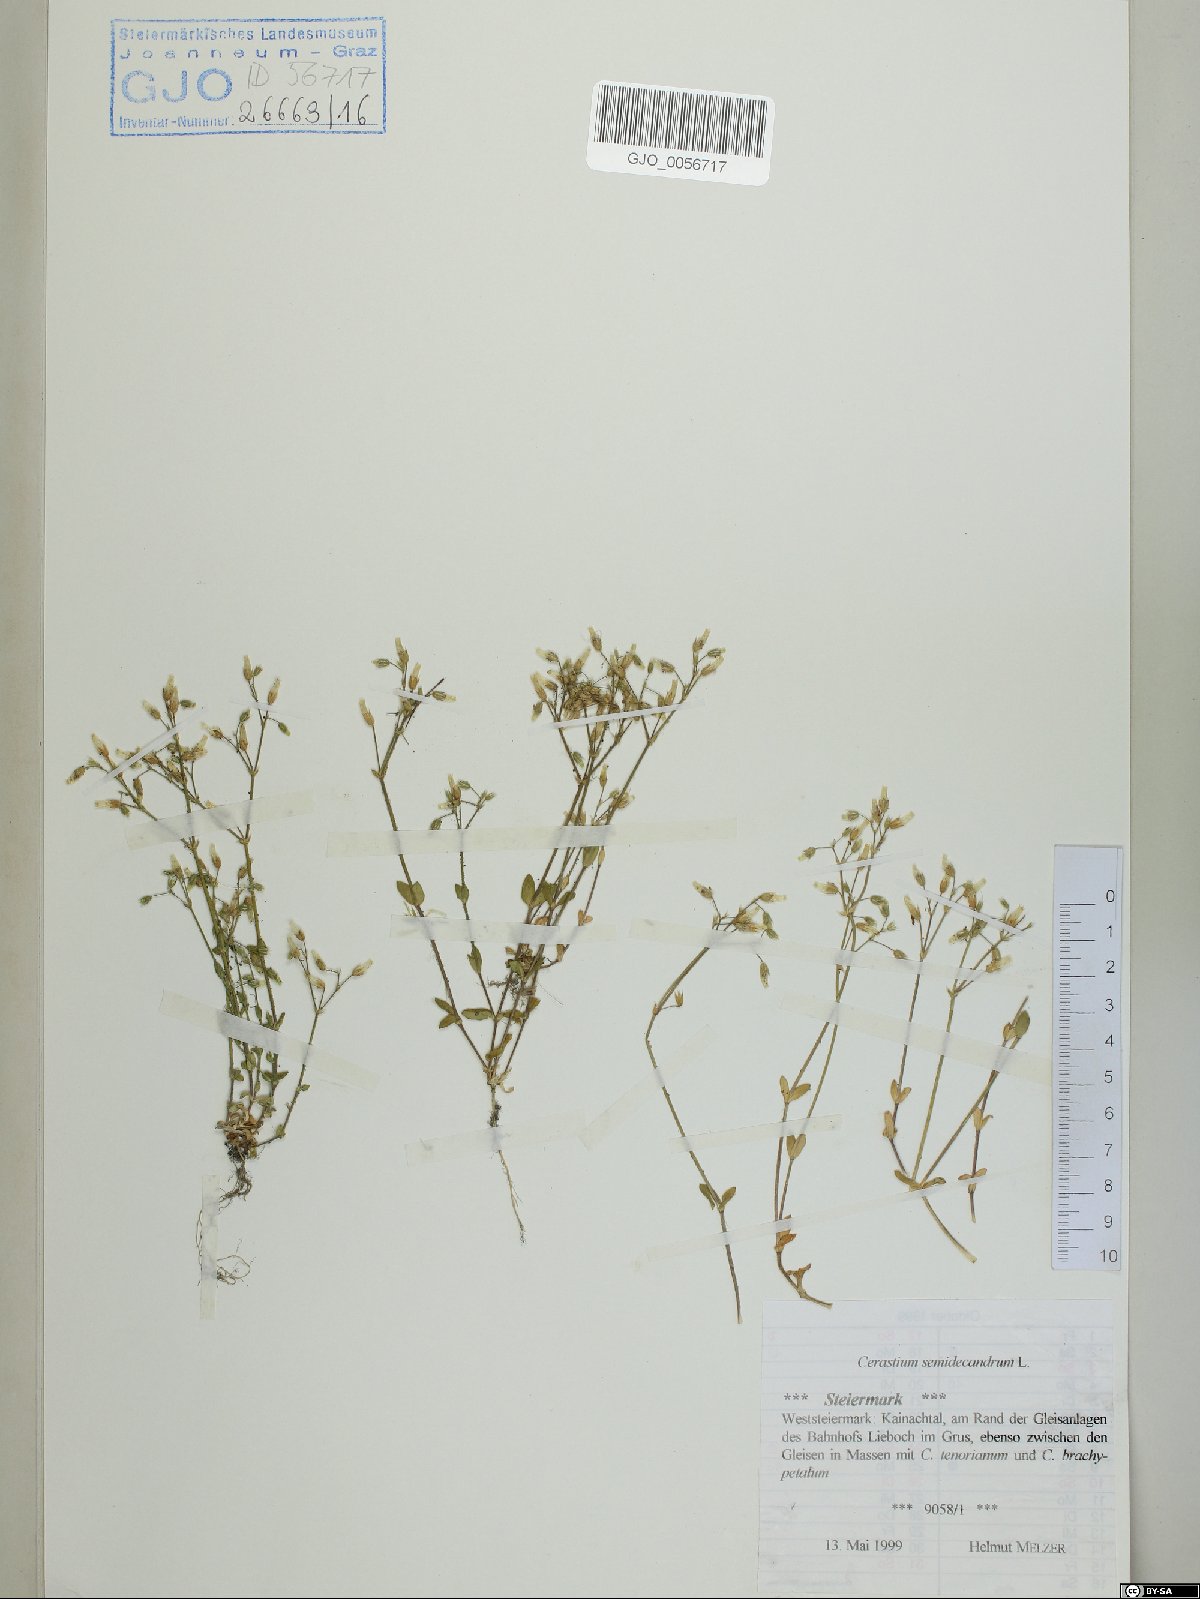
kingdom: Plantae
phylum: Tracheophyta
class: Magnoliopsida
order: Caryophyllales
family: Caryophyllaceae
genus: Cerastium
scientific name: Cerastium semidecandrum
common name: Little mouse-ear
